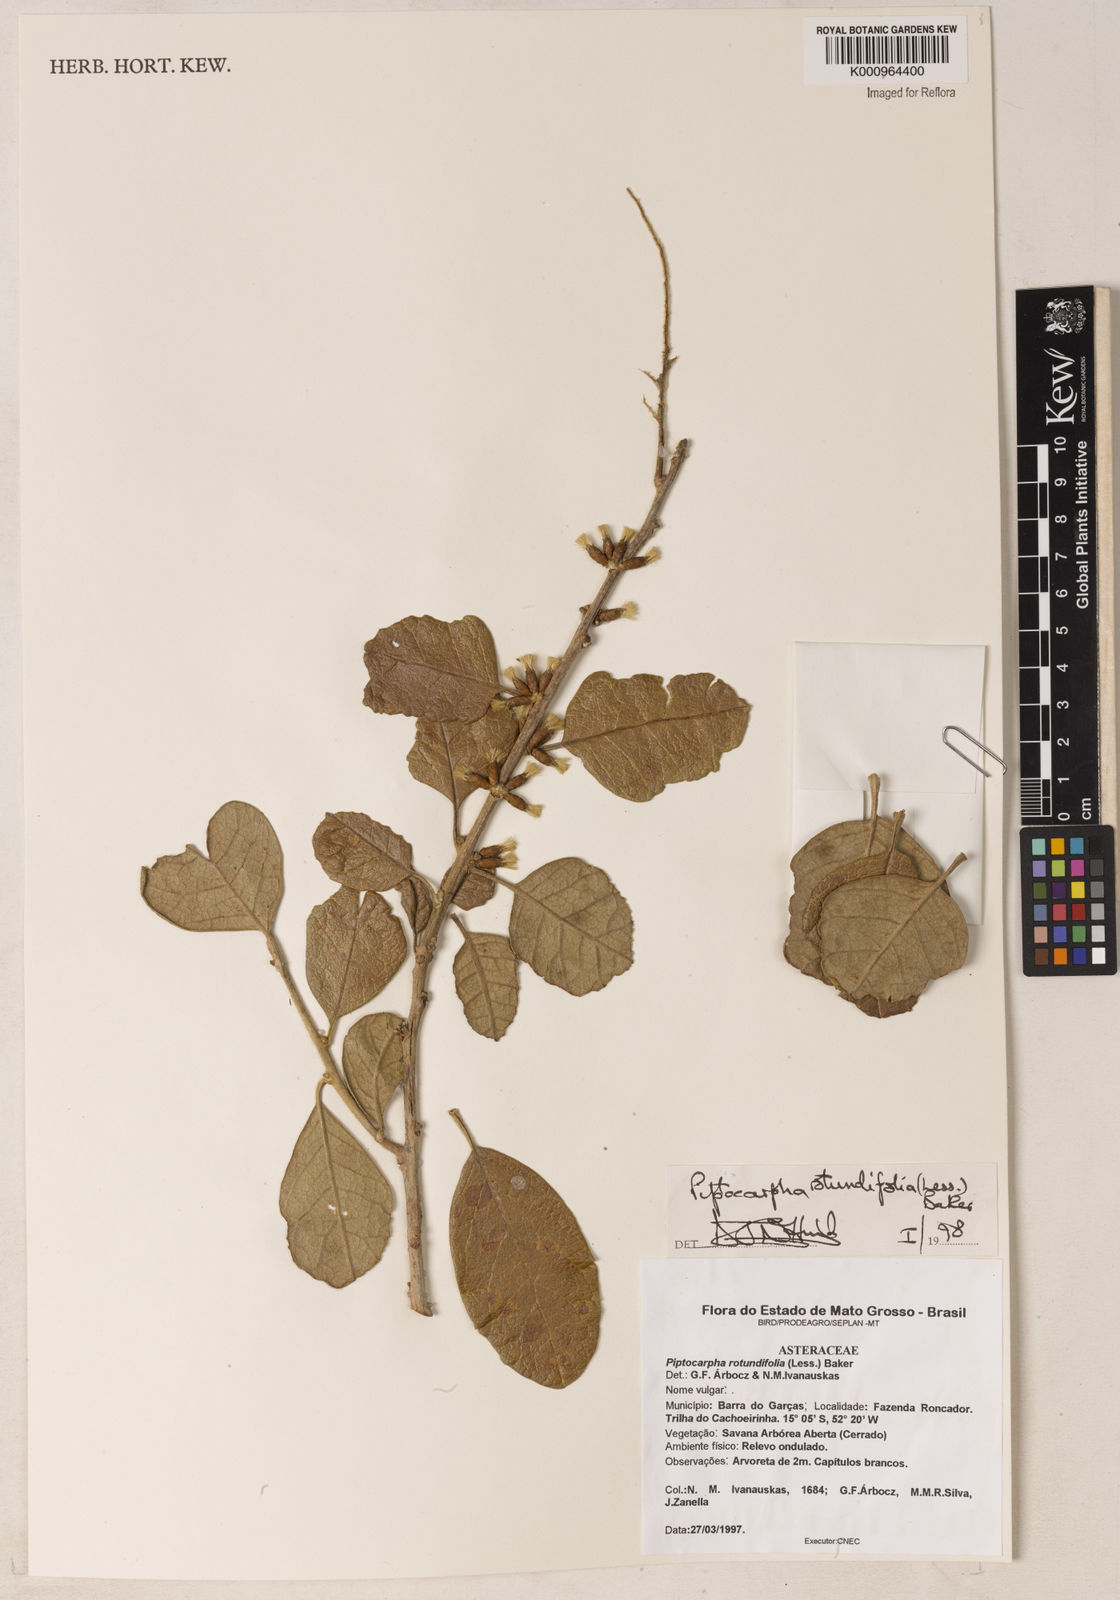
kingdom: Plantae
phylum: Tracheophyta
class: Magnoliopsida
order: Asterales
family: Asteraceae
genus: Piptocarpha
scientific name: Piptocarpha rotundifolia
